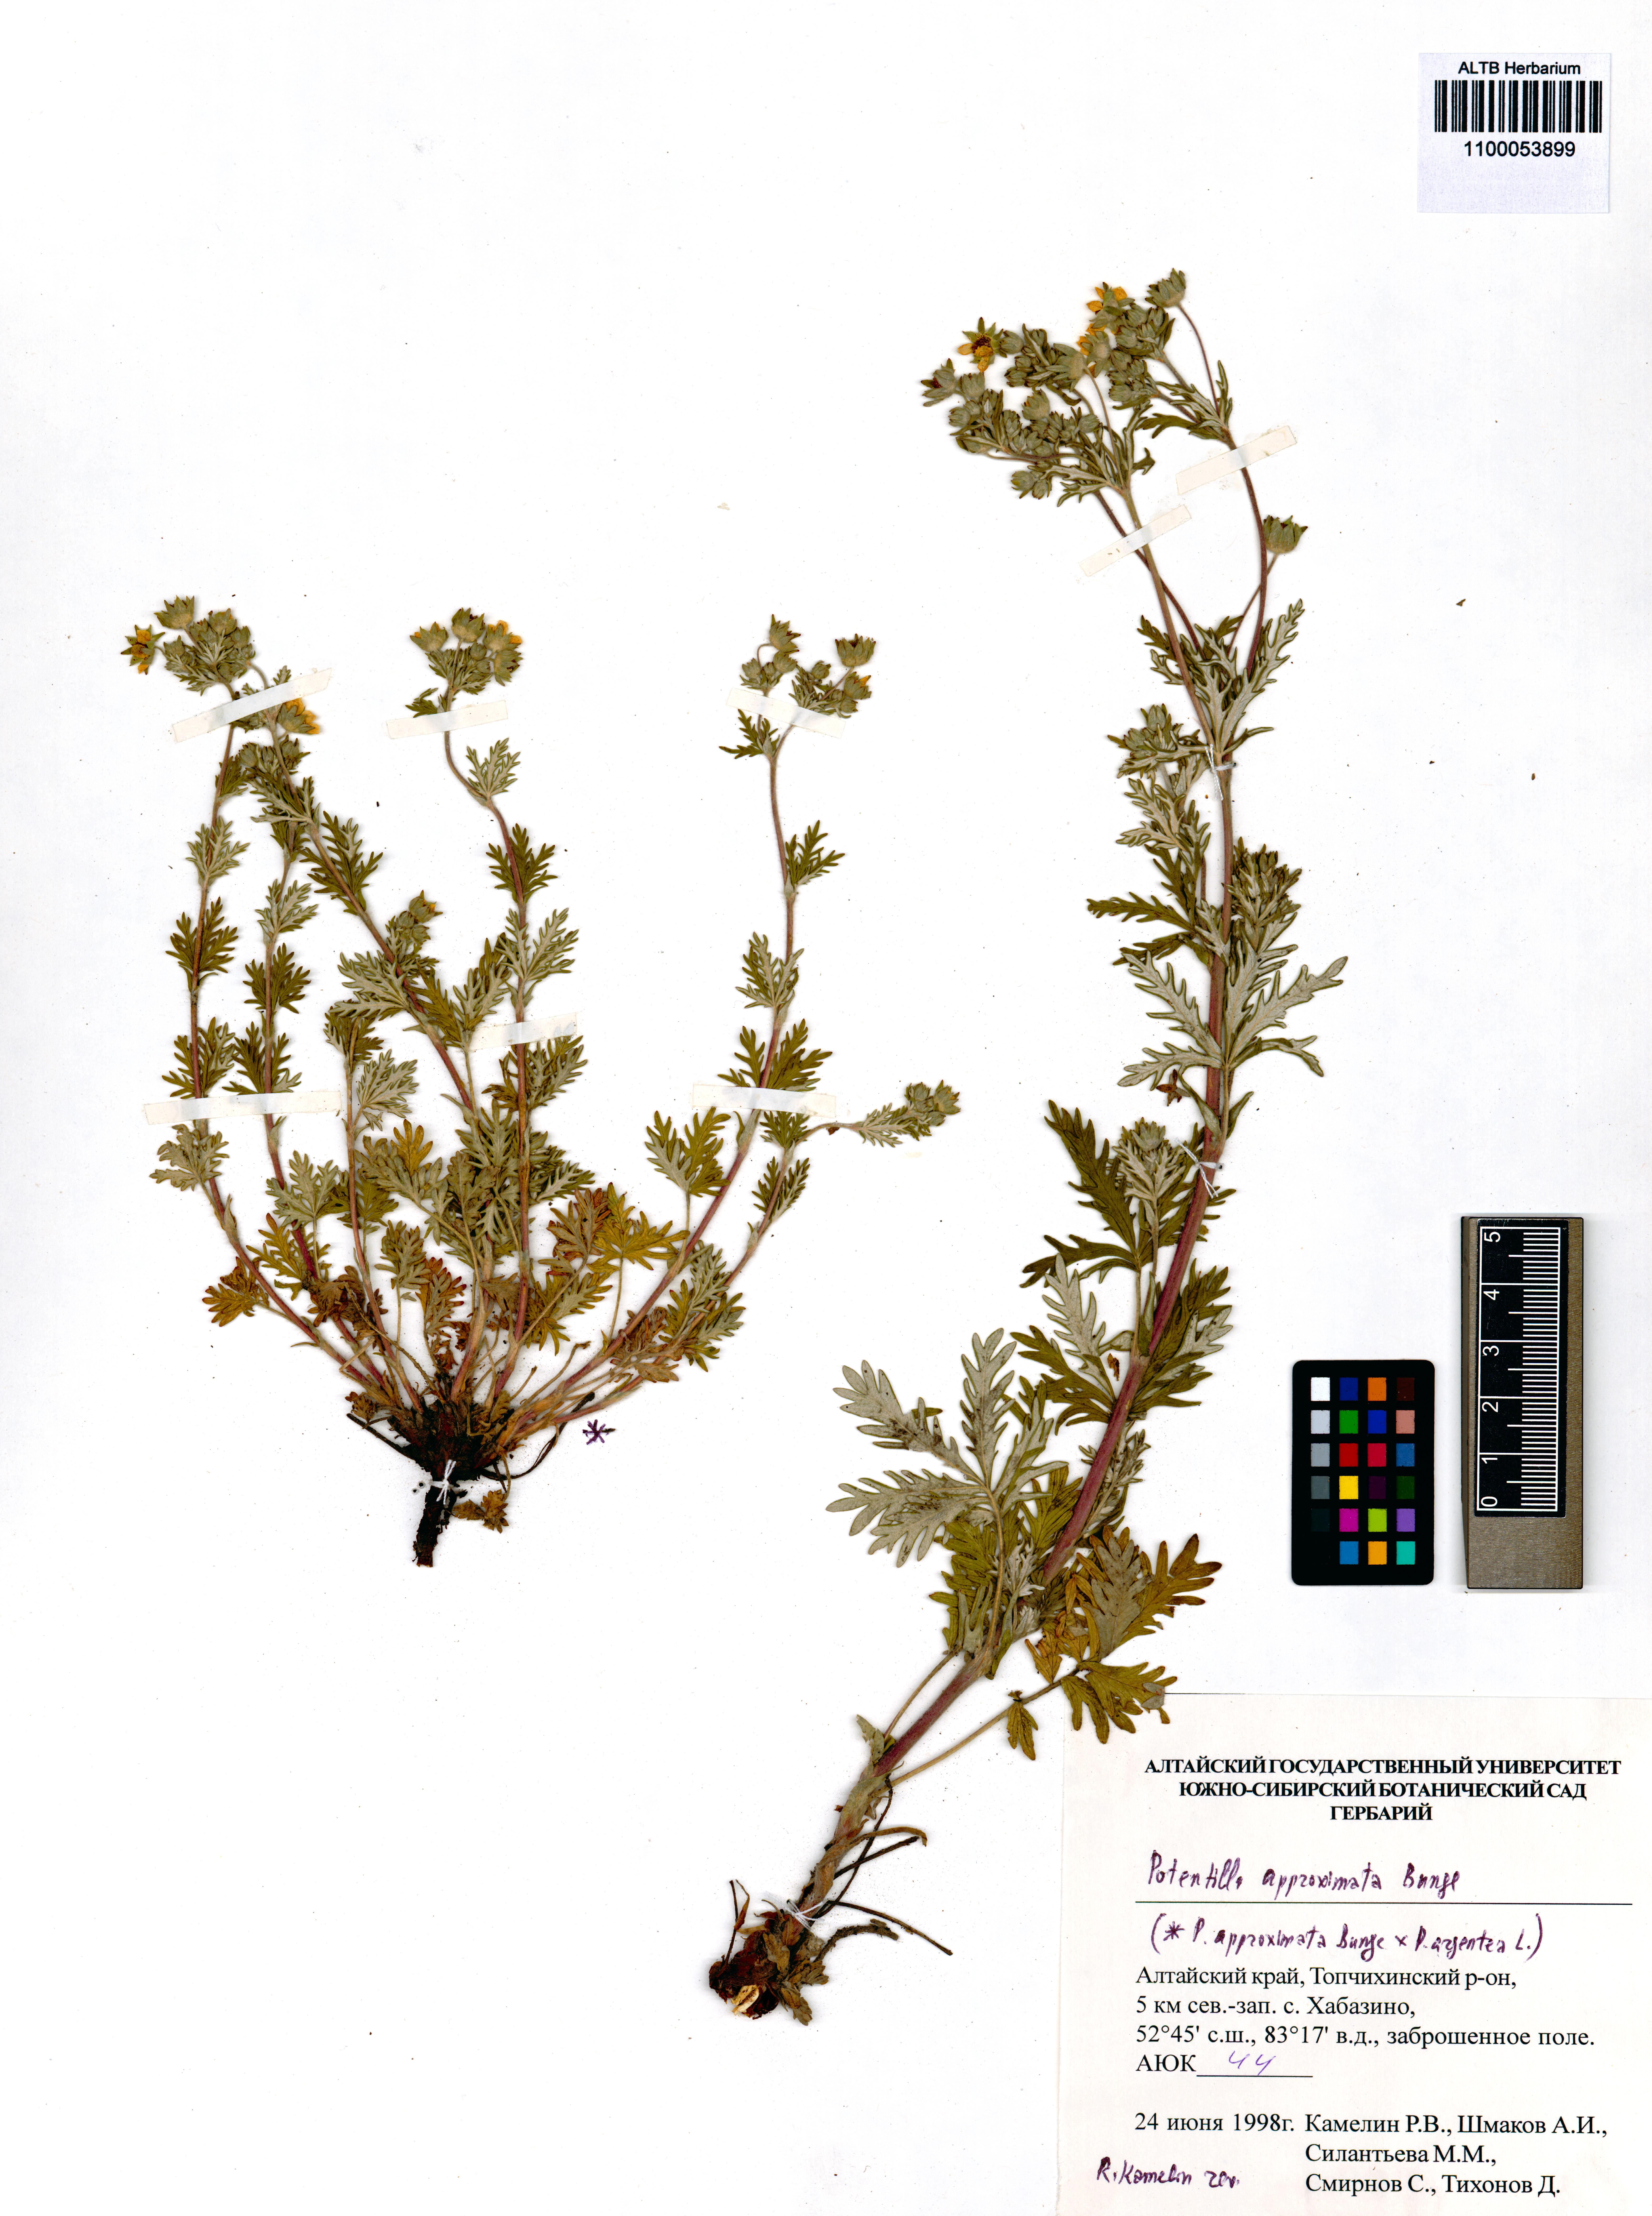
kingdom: Plantae
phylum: Tracheophyta
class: Magnoliopsida
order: Rosales
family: Rosaceae
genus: Potentilla
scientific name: Potentilla conferta
